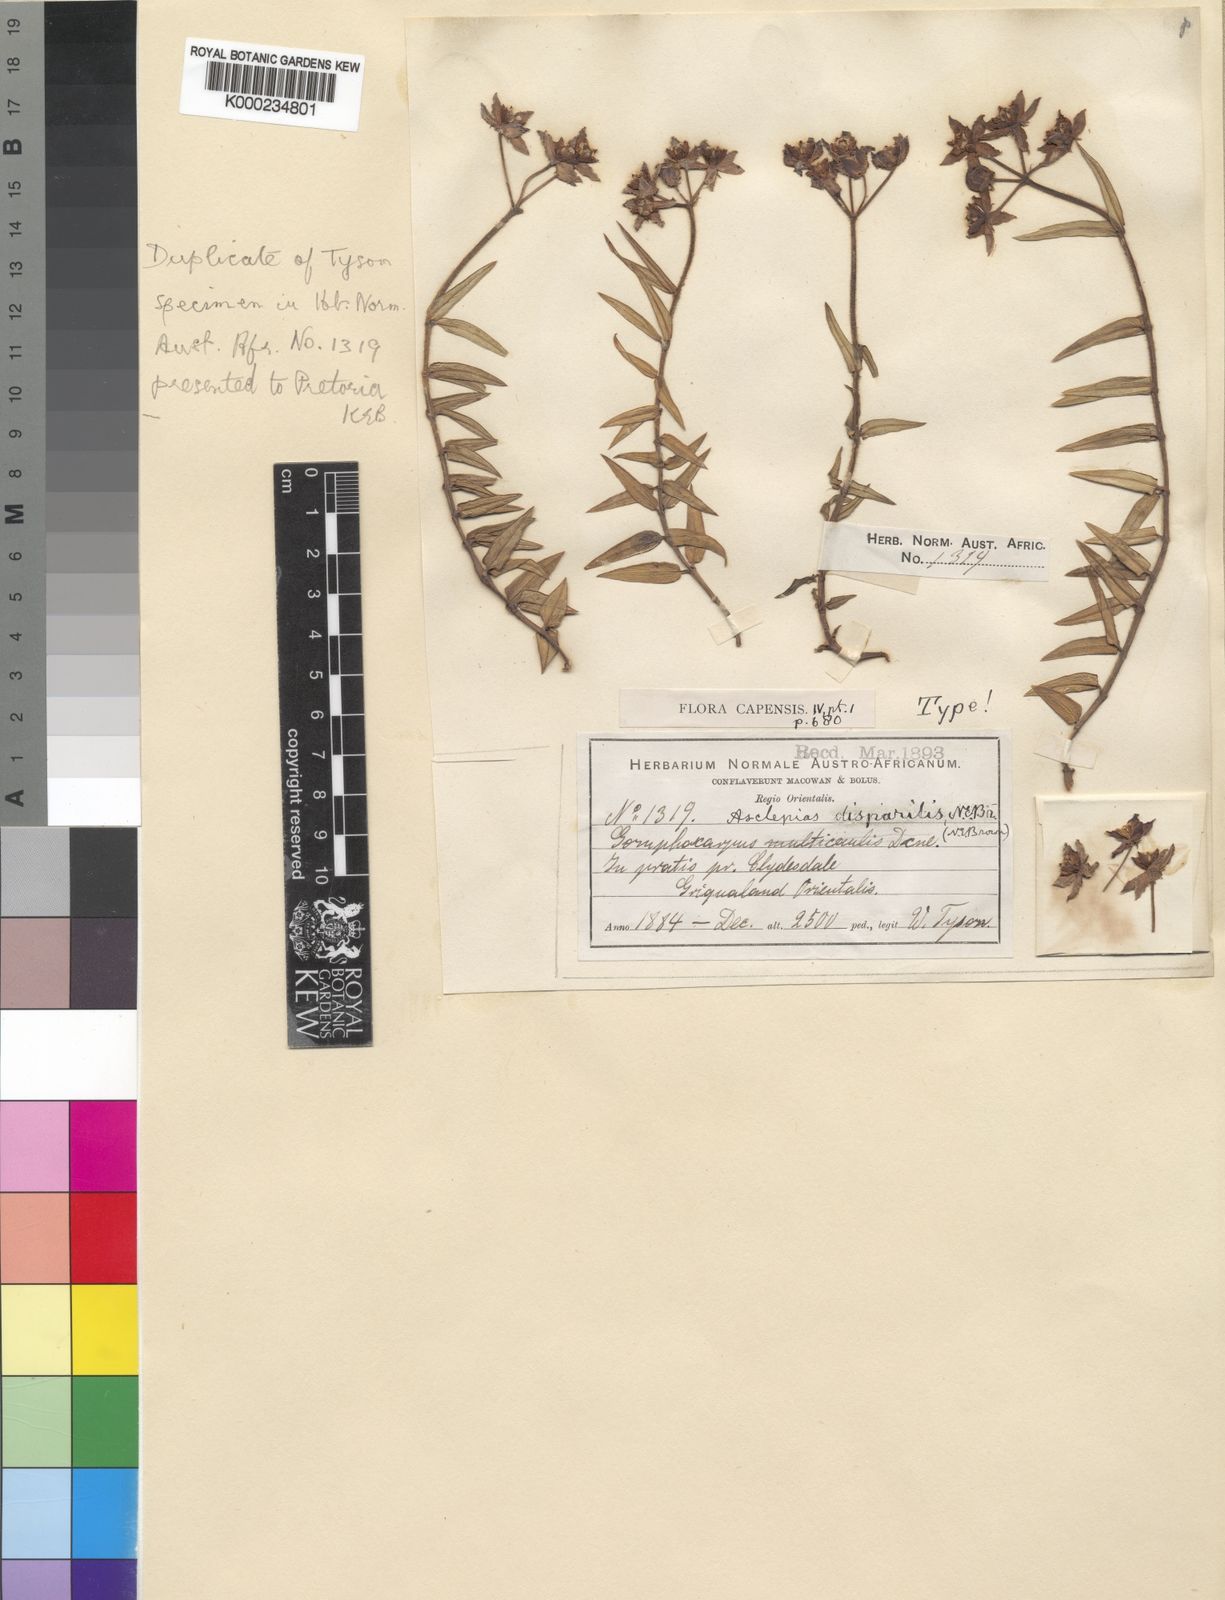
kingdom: Plantae
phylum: Tracheophyta
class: Magnoliopsida
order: Gentianales
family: Apocynaceae
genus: Asclepias
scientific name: Asclepias disparilis
